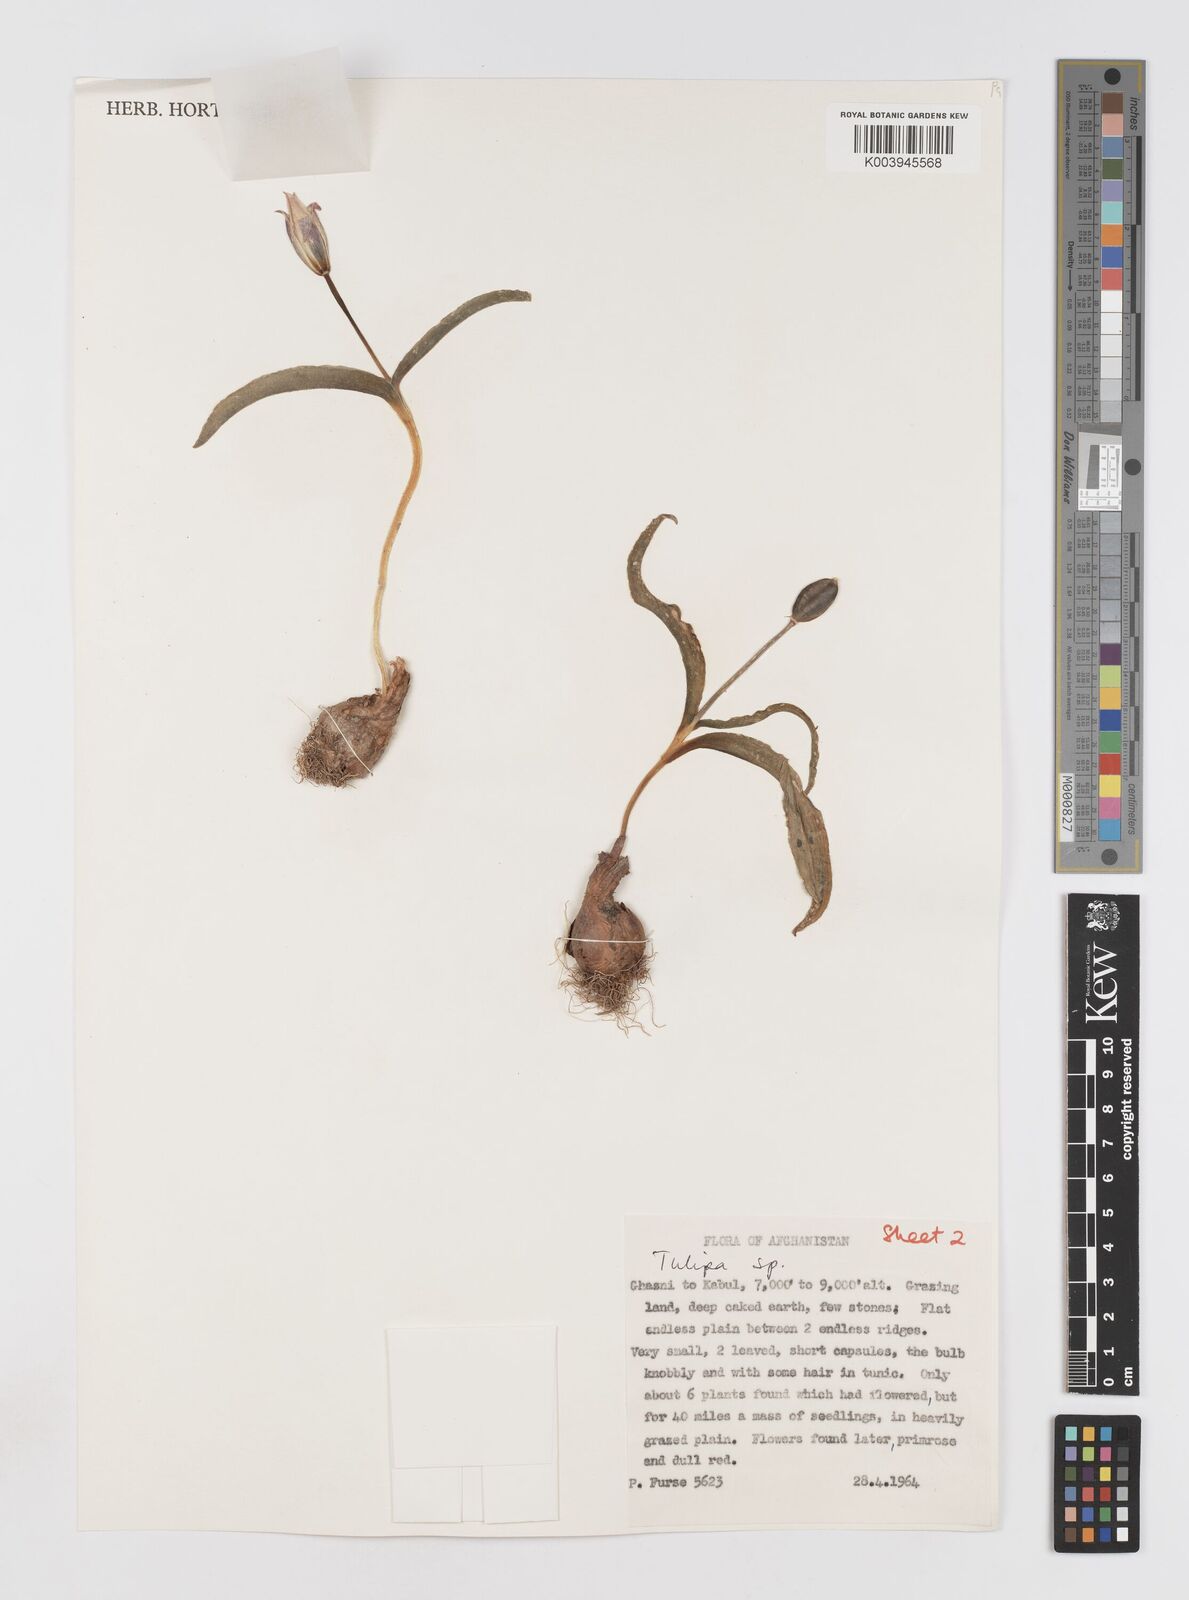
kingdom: Plantae
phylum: Tracheophyta
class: Liliopsida
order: Liliales
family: Liliaceae
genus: Tulipa
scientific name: Tulipa biflora
